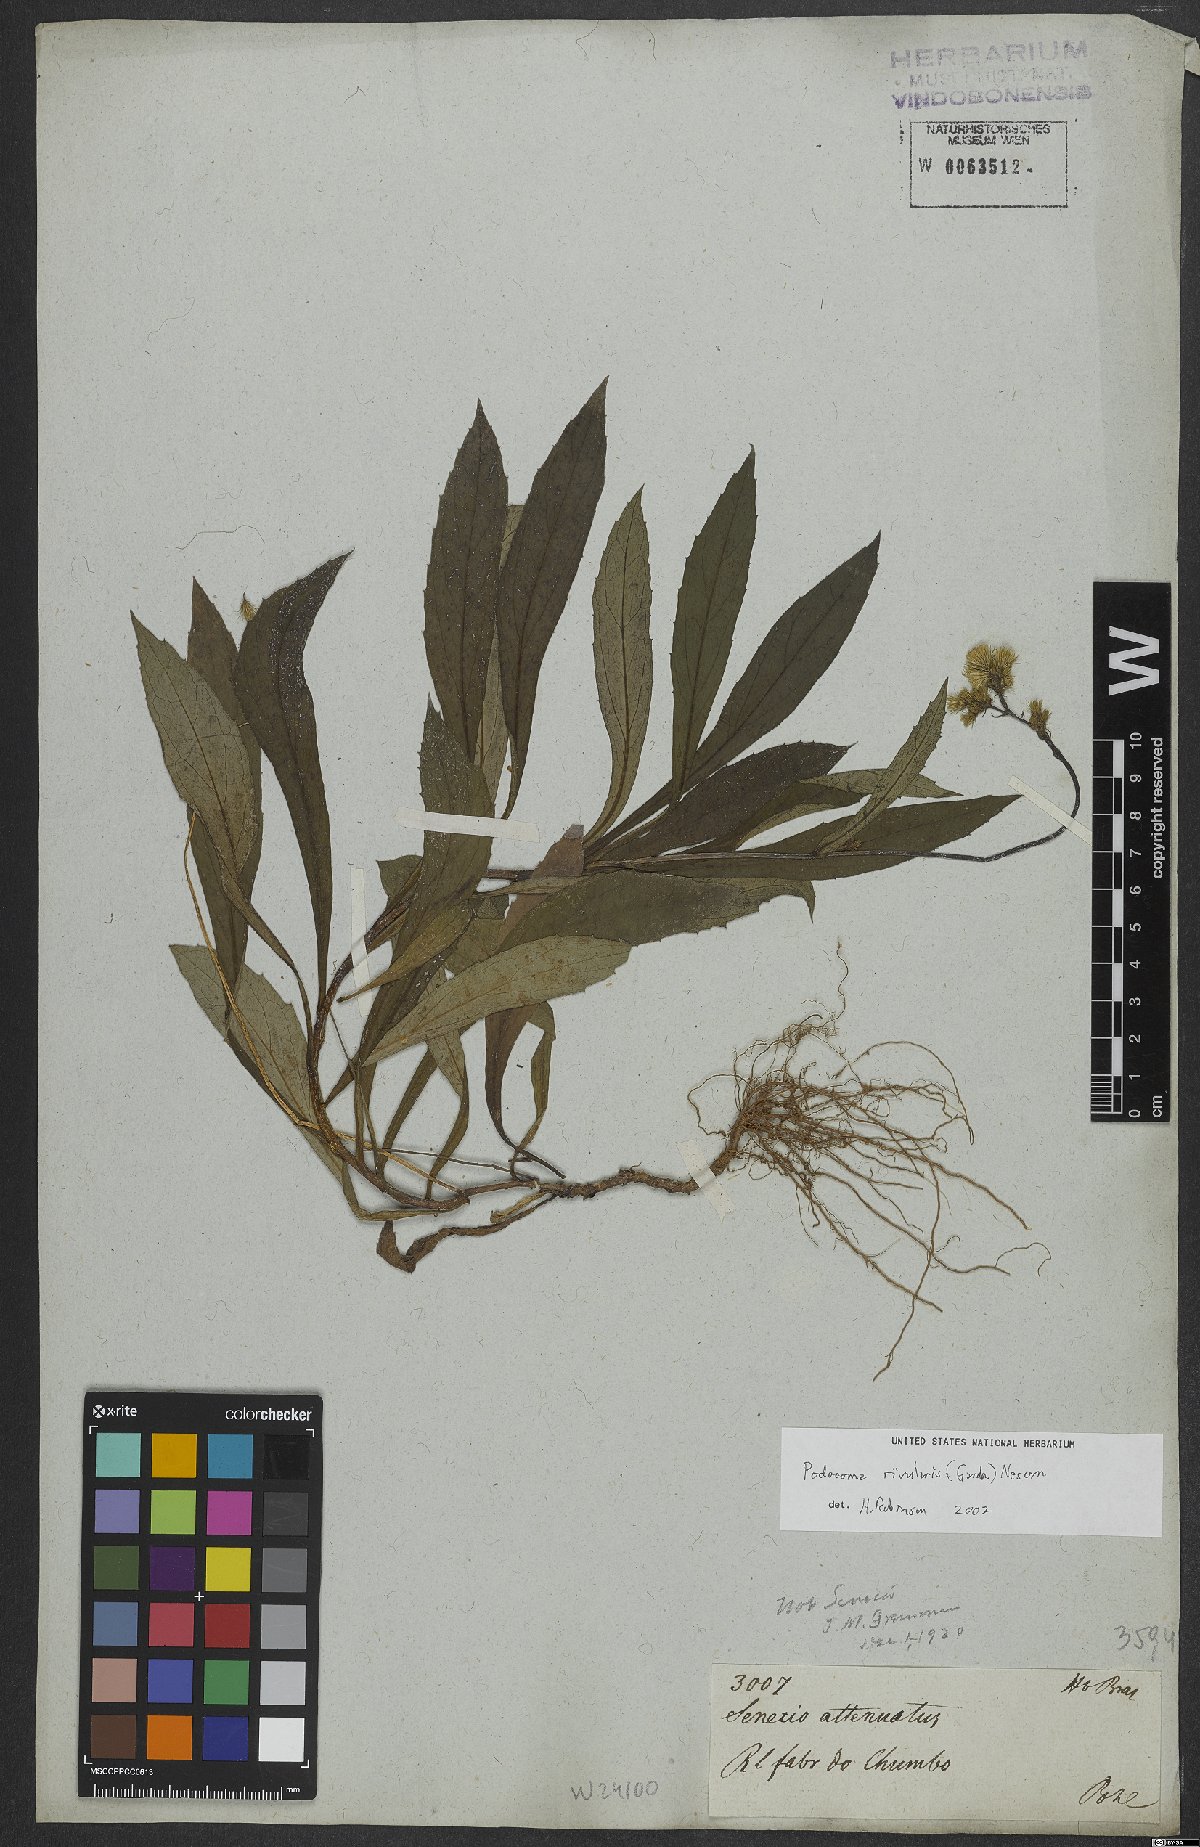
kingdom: Plantae
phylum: Tracheophyta
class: Magnoliopsida
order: Asterales
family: Asteraceae
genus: Exostigma
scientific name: Exostigma rivulare
